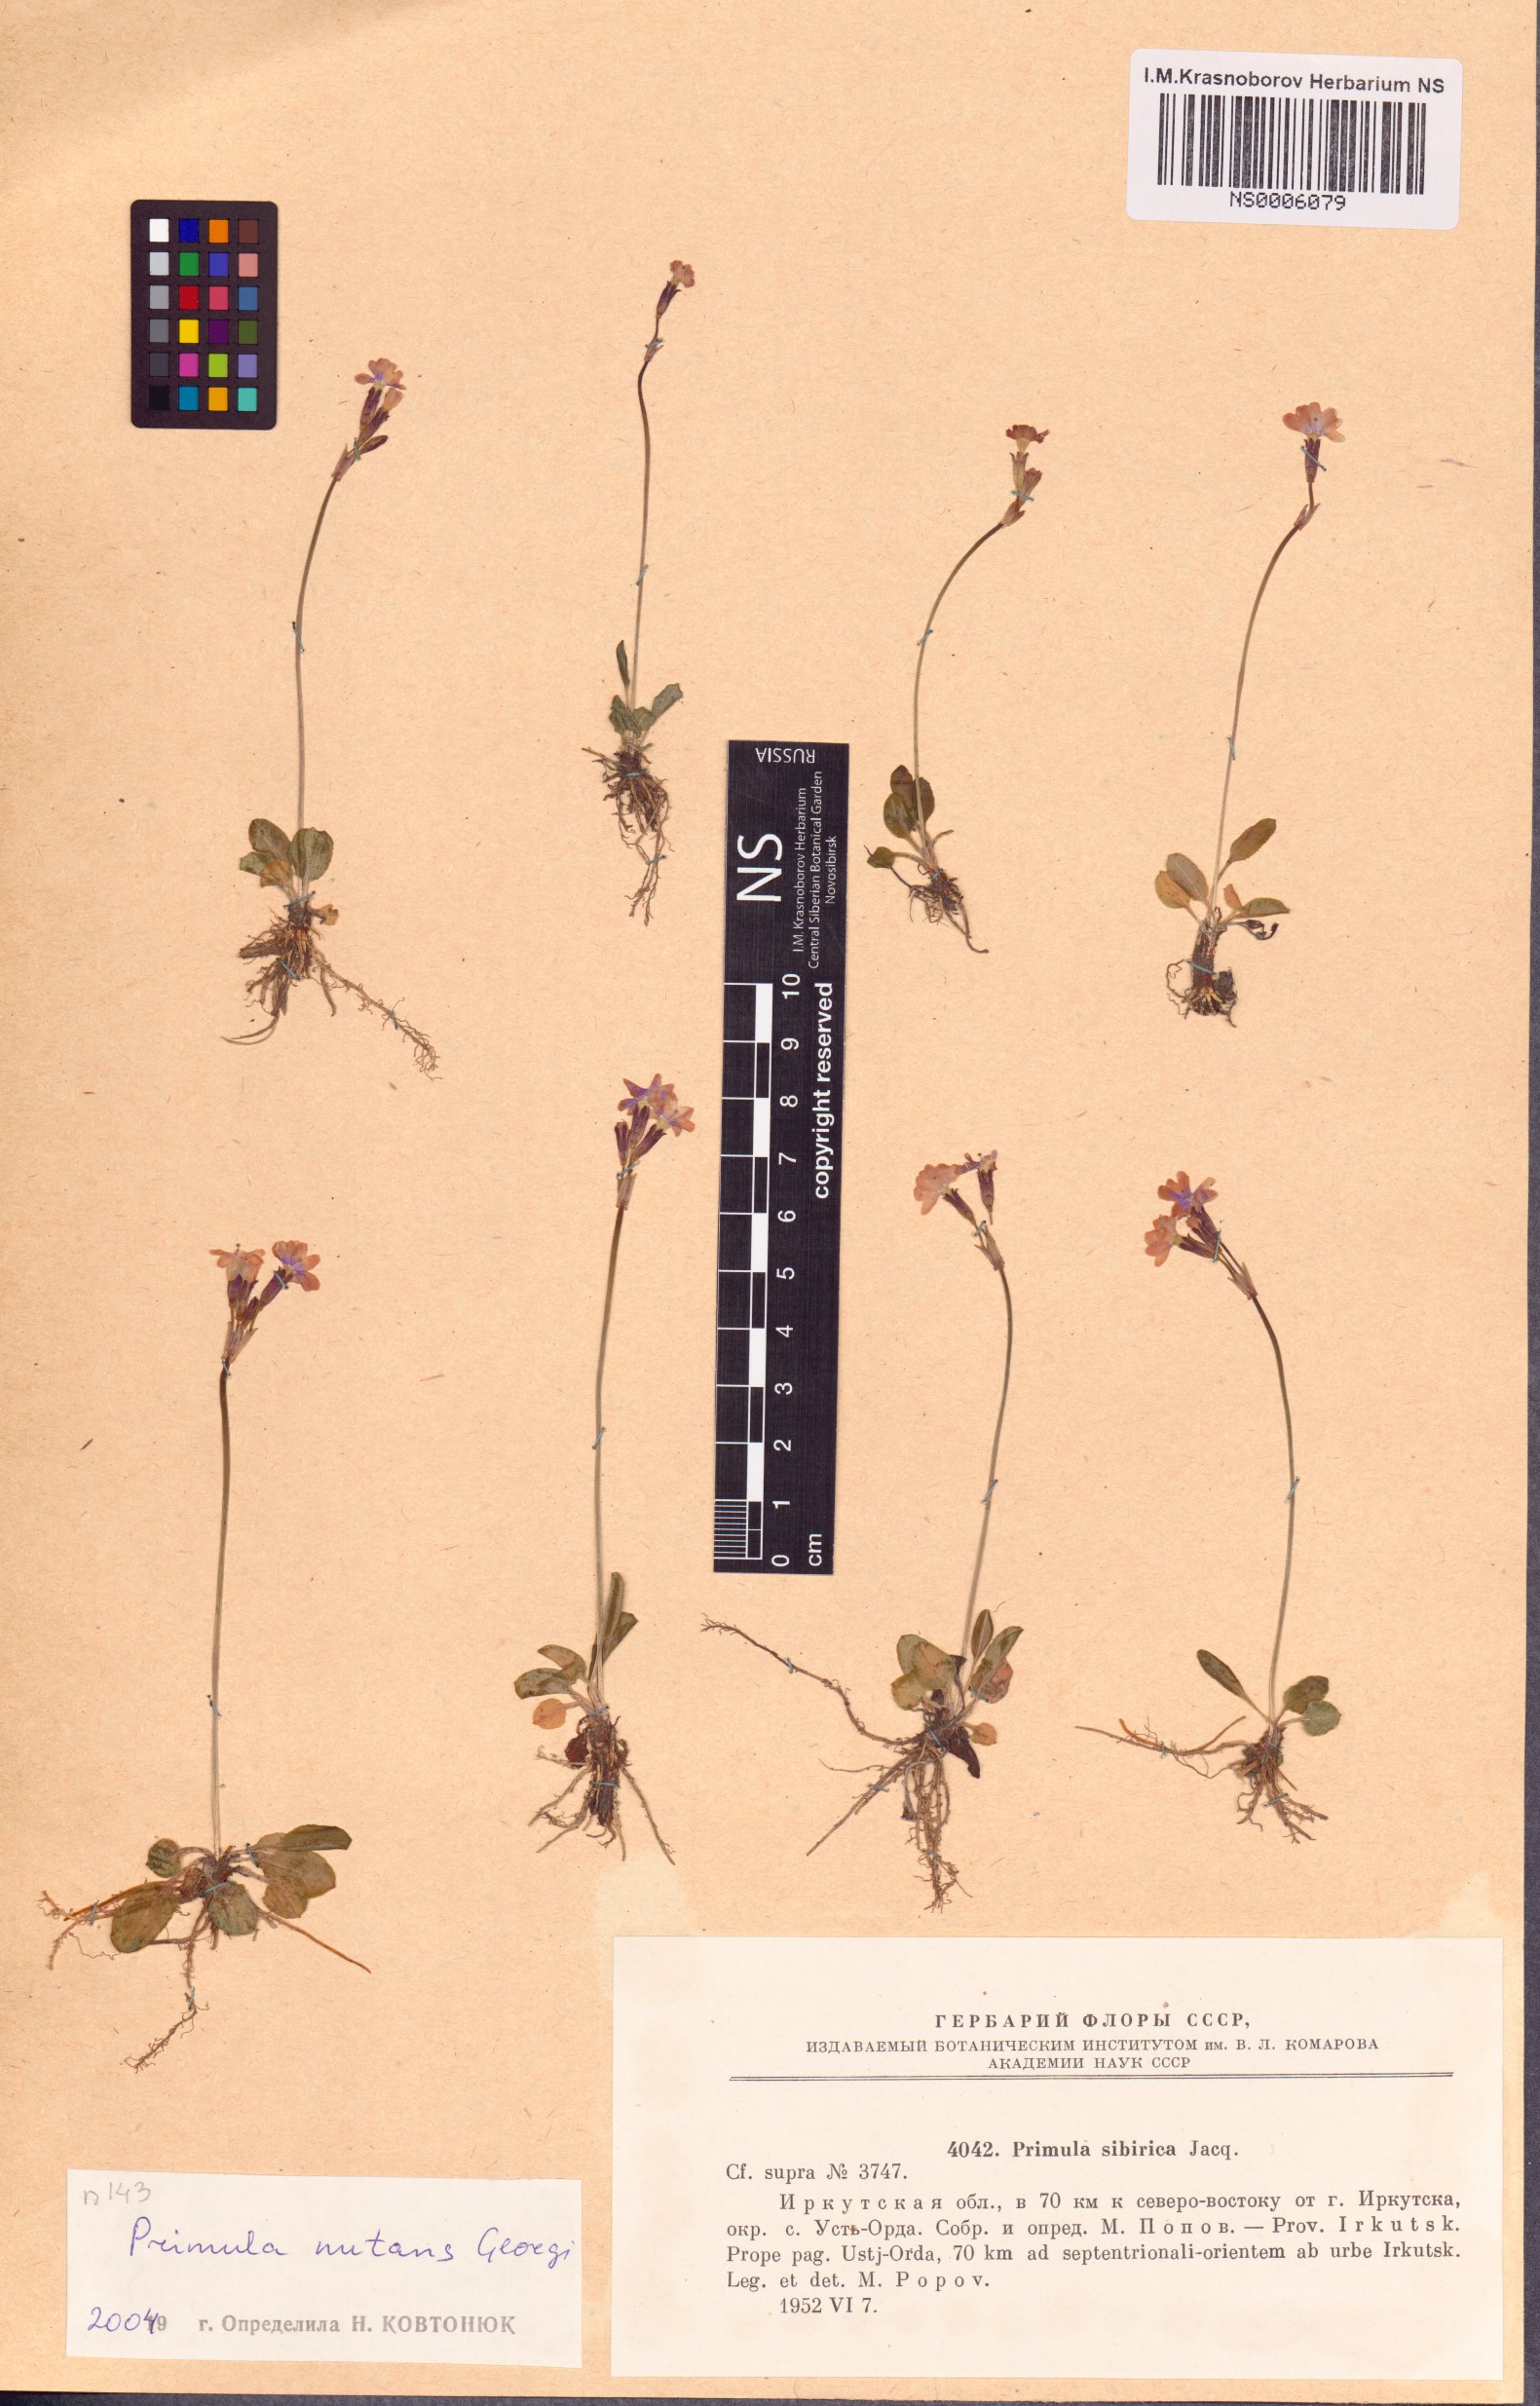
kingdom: Plantae
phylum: Tracheophyta
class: Magnoliopsida
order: Ericales
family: Primulaceae
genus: Primula
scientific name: Primula nutans
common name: Siberian primrose
